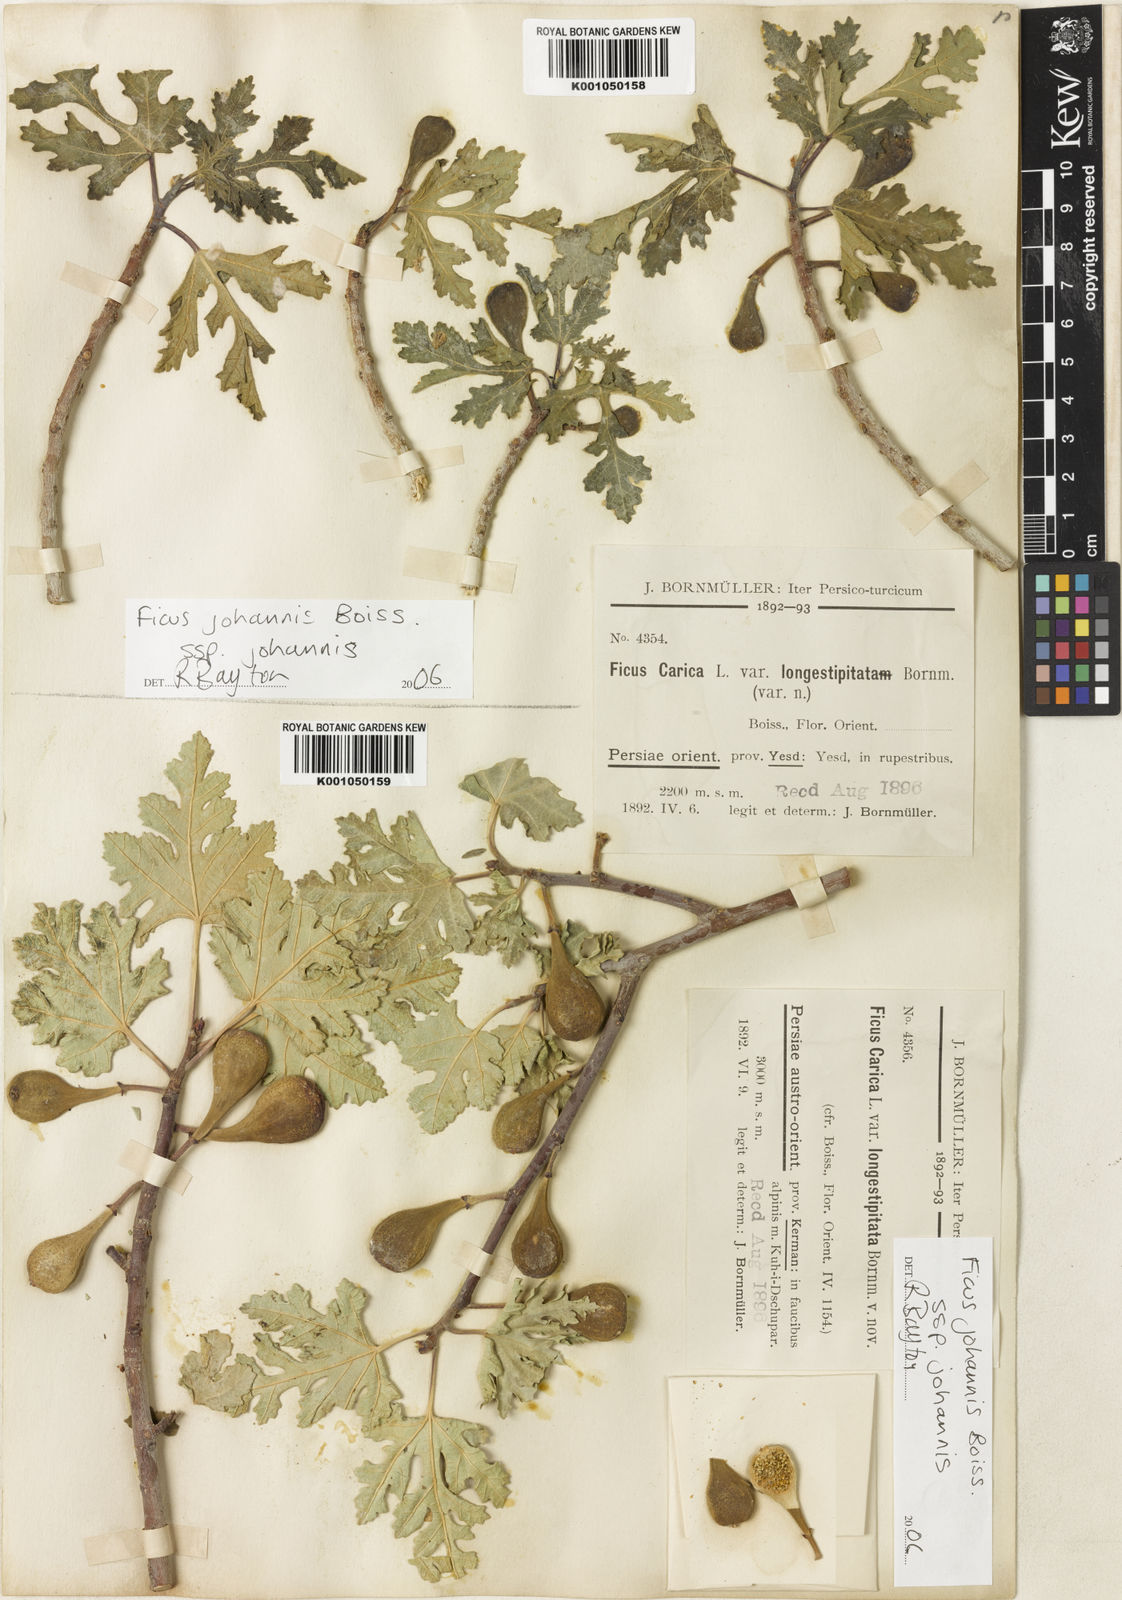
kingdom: Plantae
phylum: Tracheophyta
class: Magnoliopsida
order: Rosales
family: Moraceae
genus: Ficus
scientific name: Ficus carica
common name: Fig
